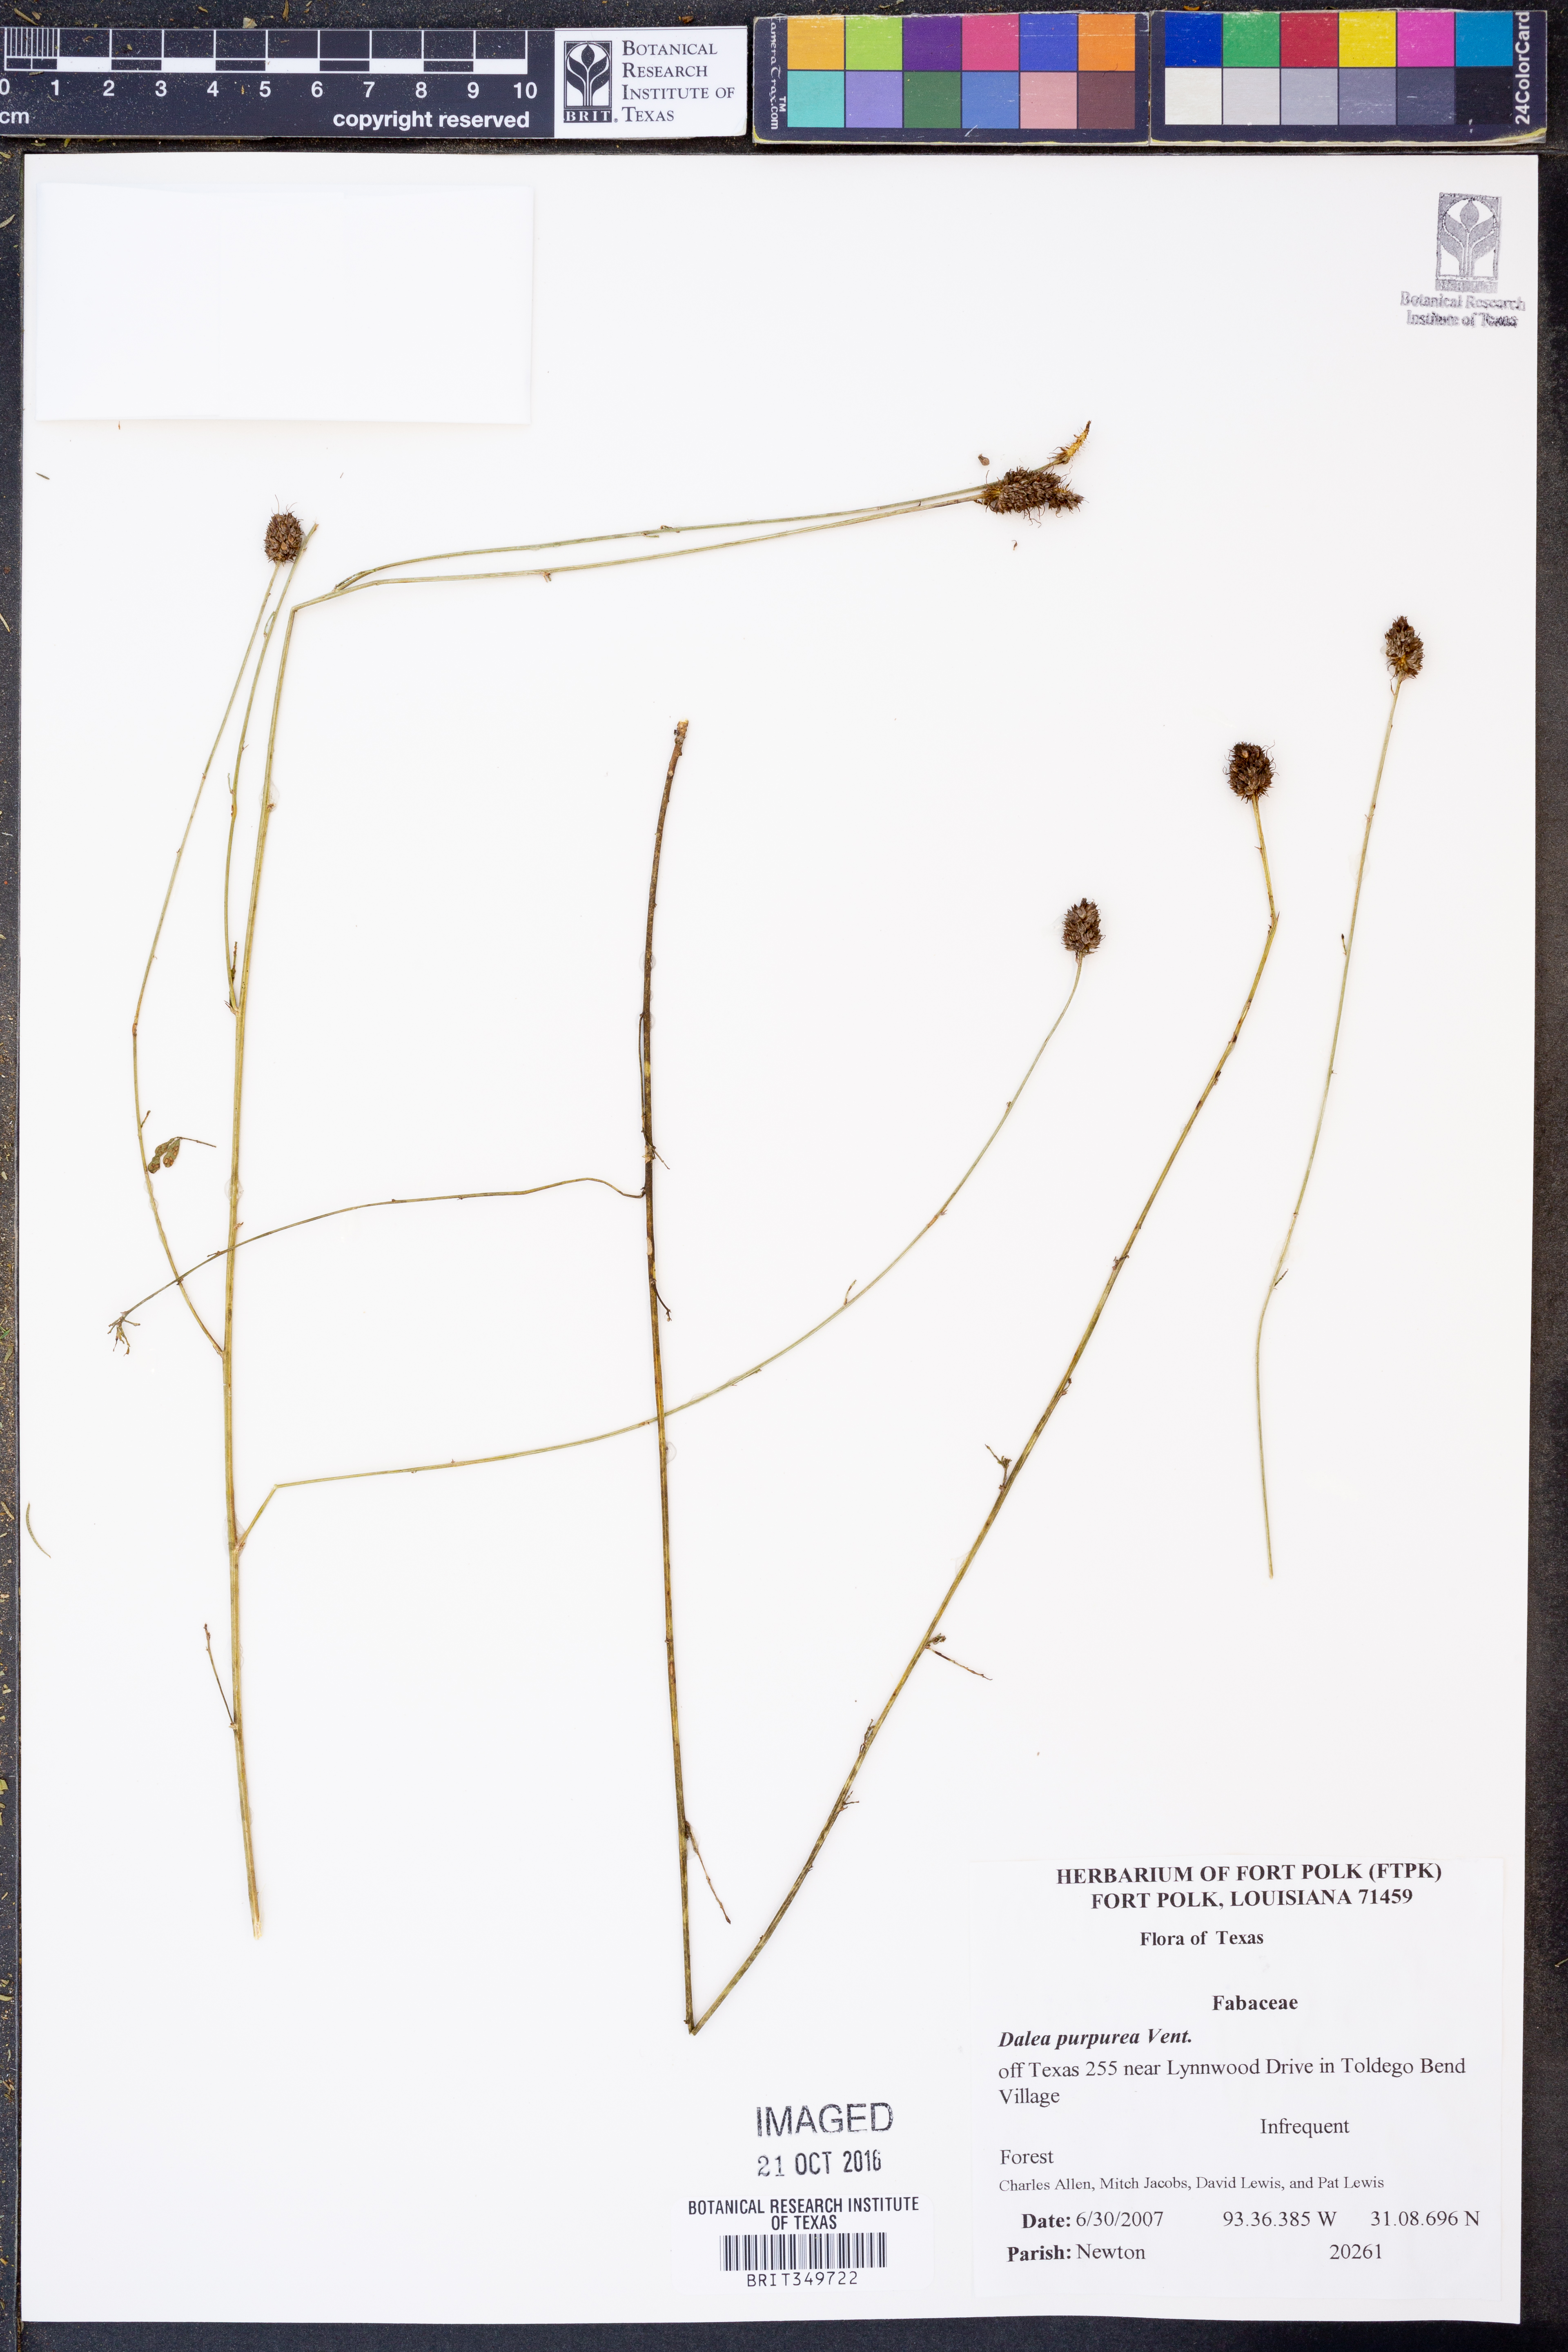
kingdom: Plantae
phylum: Tracheophyta
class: Magnoliopsida
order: Fabales
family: Fabaceae
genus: Dalea
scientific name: Dalea purpurea
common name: Purple prairie-clover
